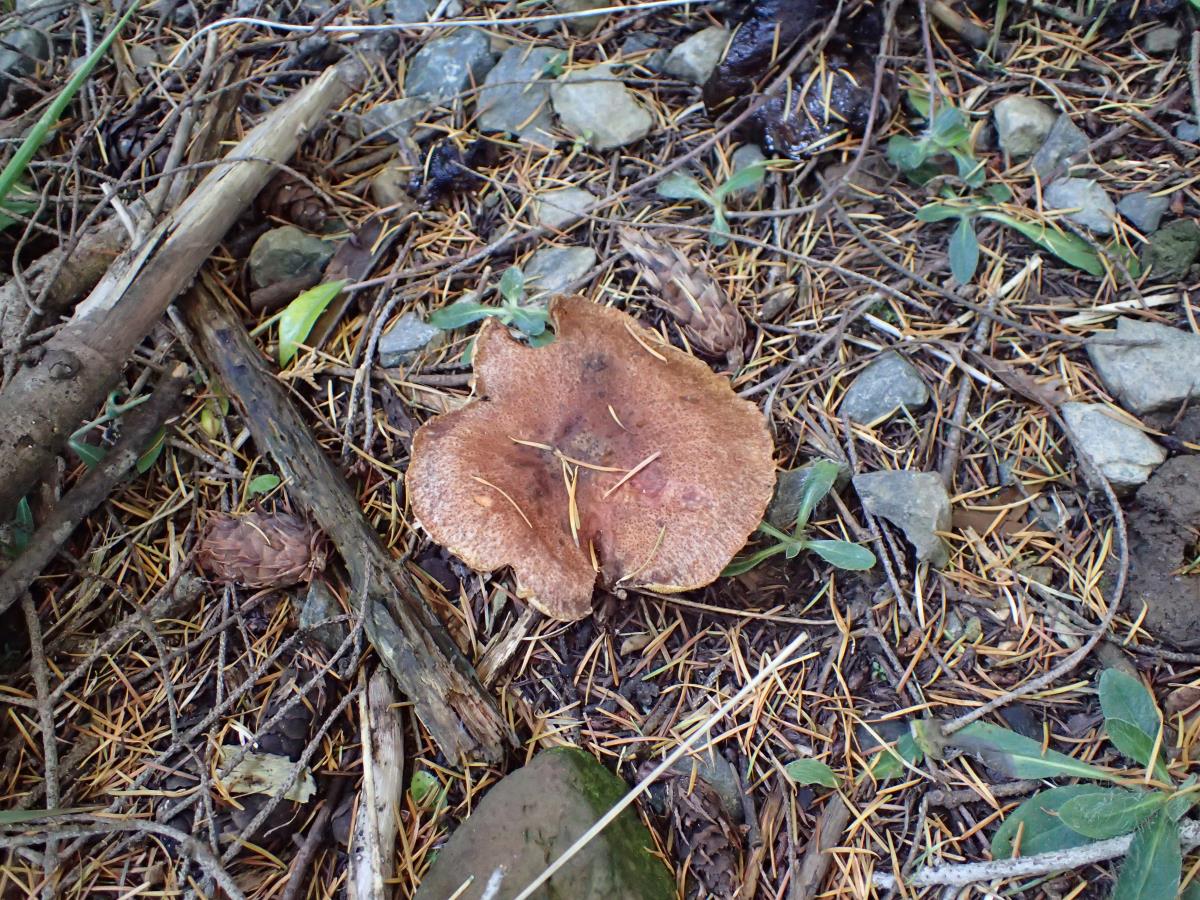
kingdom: Fungi
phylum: Basidiomycota
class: Agaricomycetes
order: Boletales
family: Suillaceae
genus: Suillus
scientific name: Suillus lakei
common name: Western painted suillus
